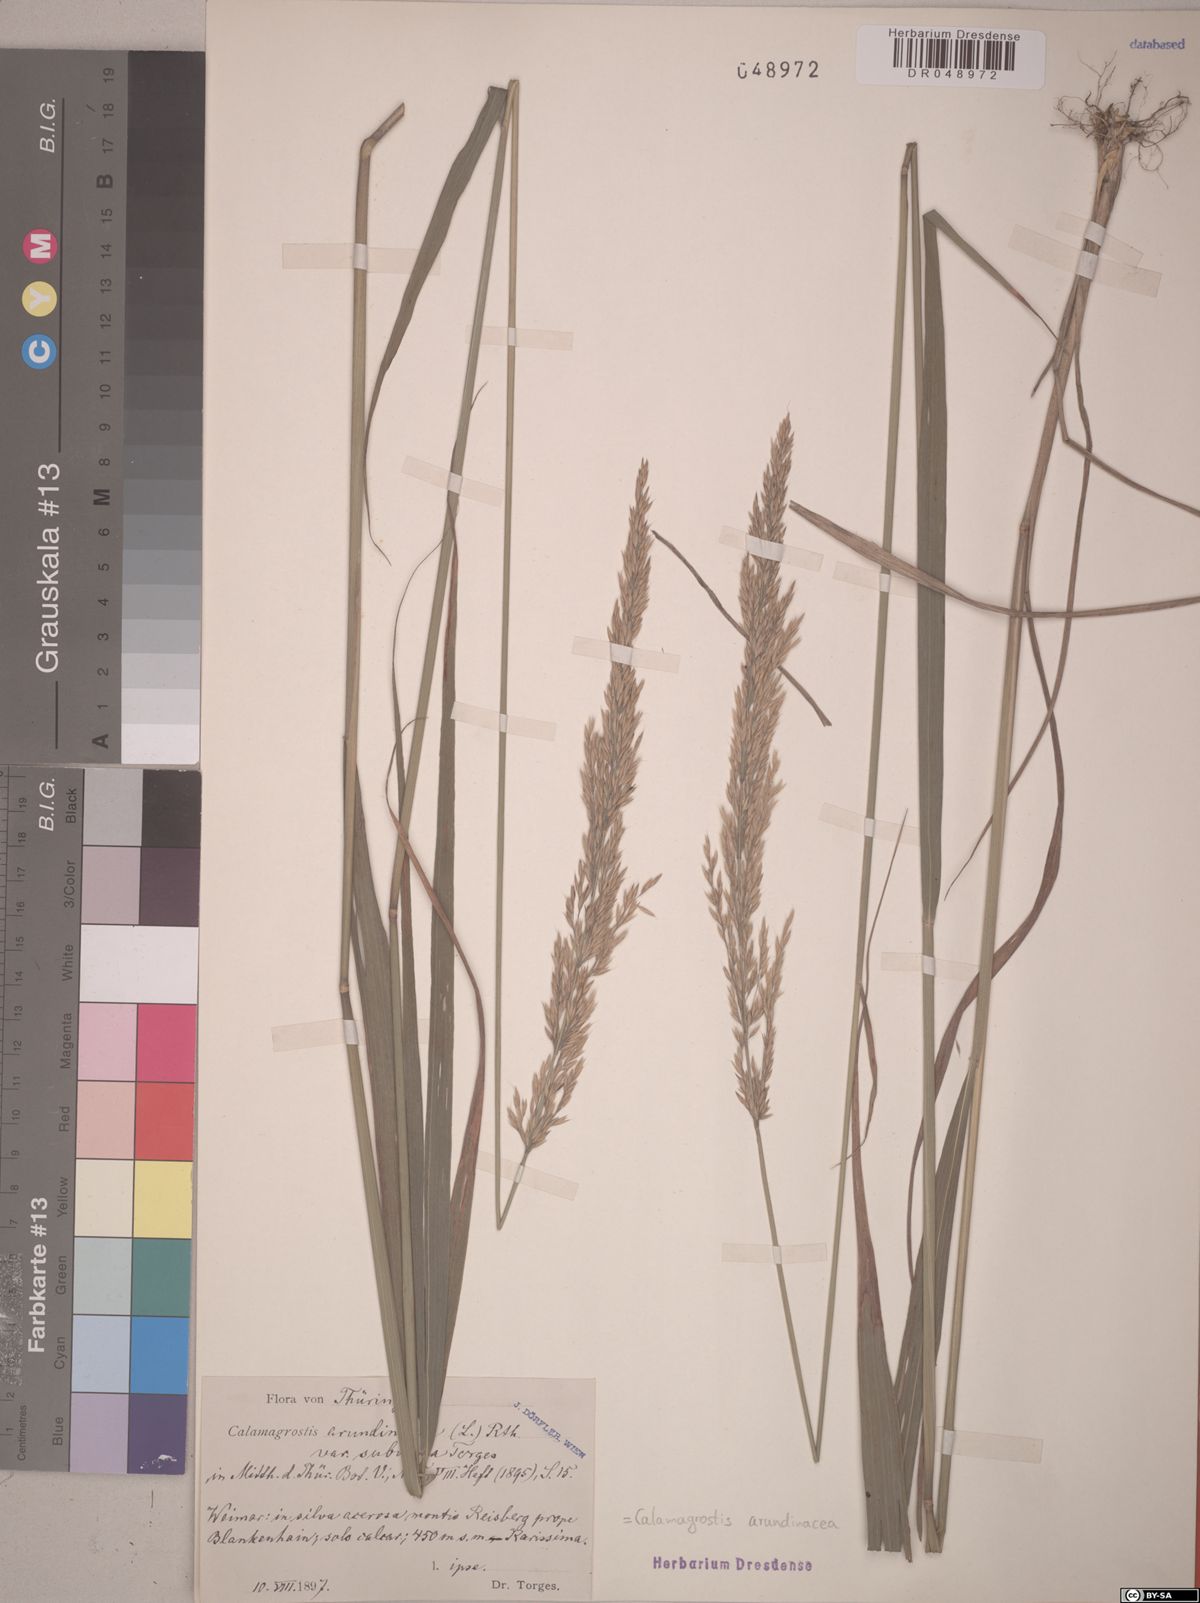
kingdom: Plantae
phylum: Tracheophyta
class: Liliopsida
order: Poales
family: Poaceae
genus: Calamagrostis
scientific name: Calamagrostis arundinacea
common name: Metskastik
